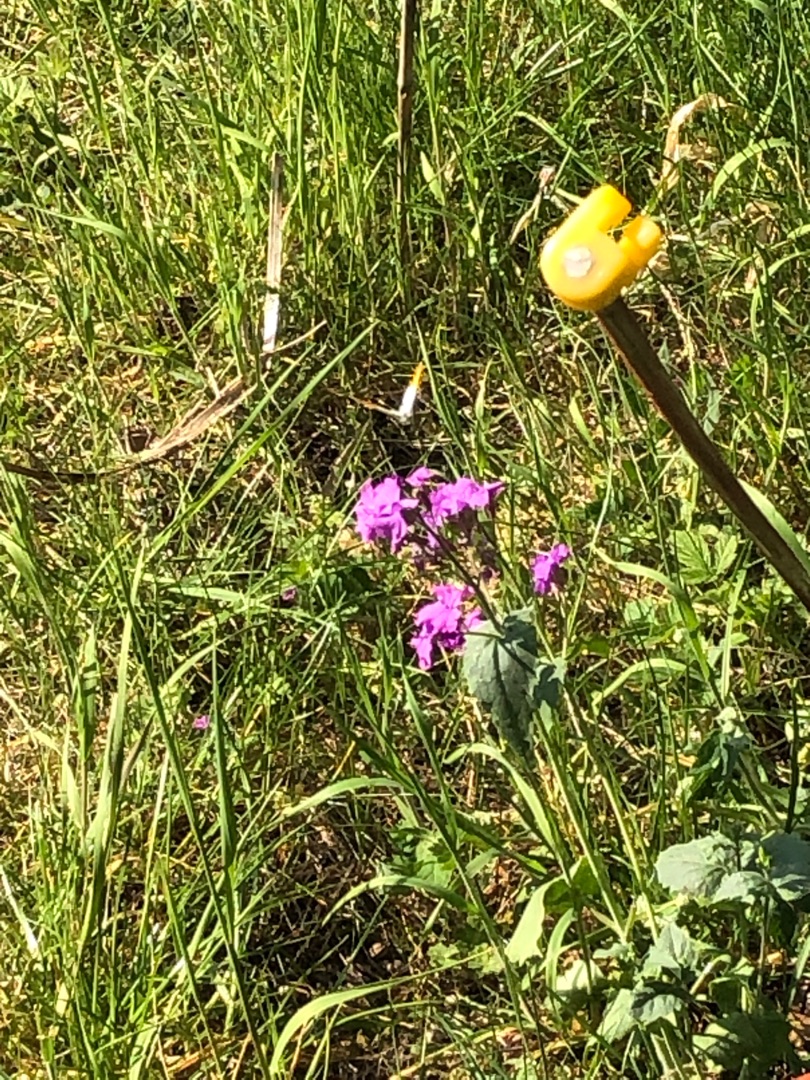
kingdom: Animalia
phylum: Arthropoda
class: Insecta
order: Lepidoptera
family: Pieridae
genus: Anthocharis
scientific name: Anthocharis cardamines
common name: Aurora
